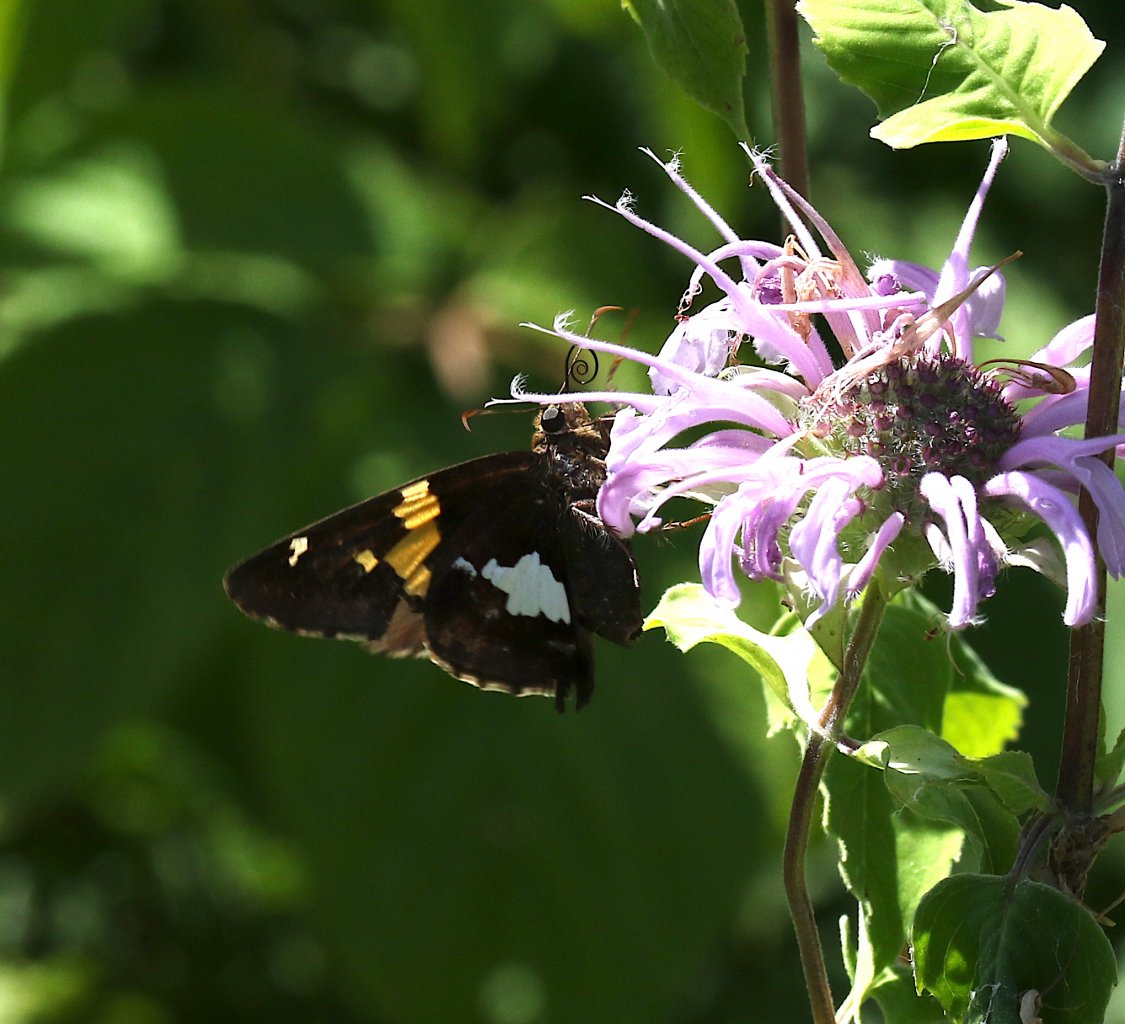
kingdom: Animalia
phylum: Arthropoda
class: Insecta
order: Lepidoptera
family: Hesperiidae
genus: Epargyreus
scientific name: Epargyreus clarus
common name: Silver-spotted Skipper
